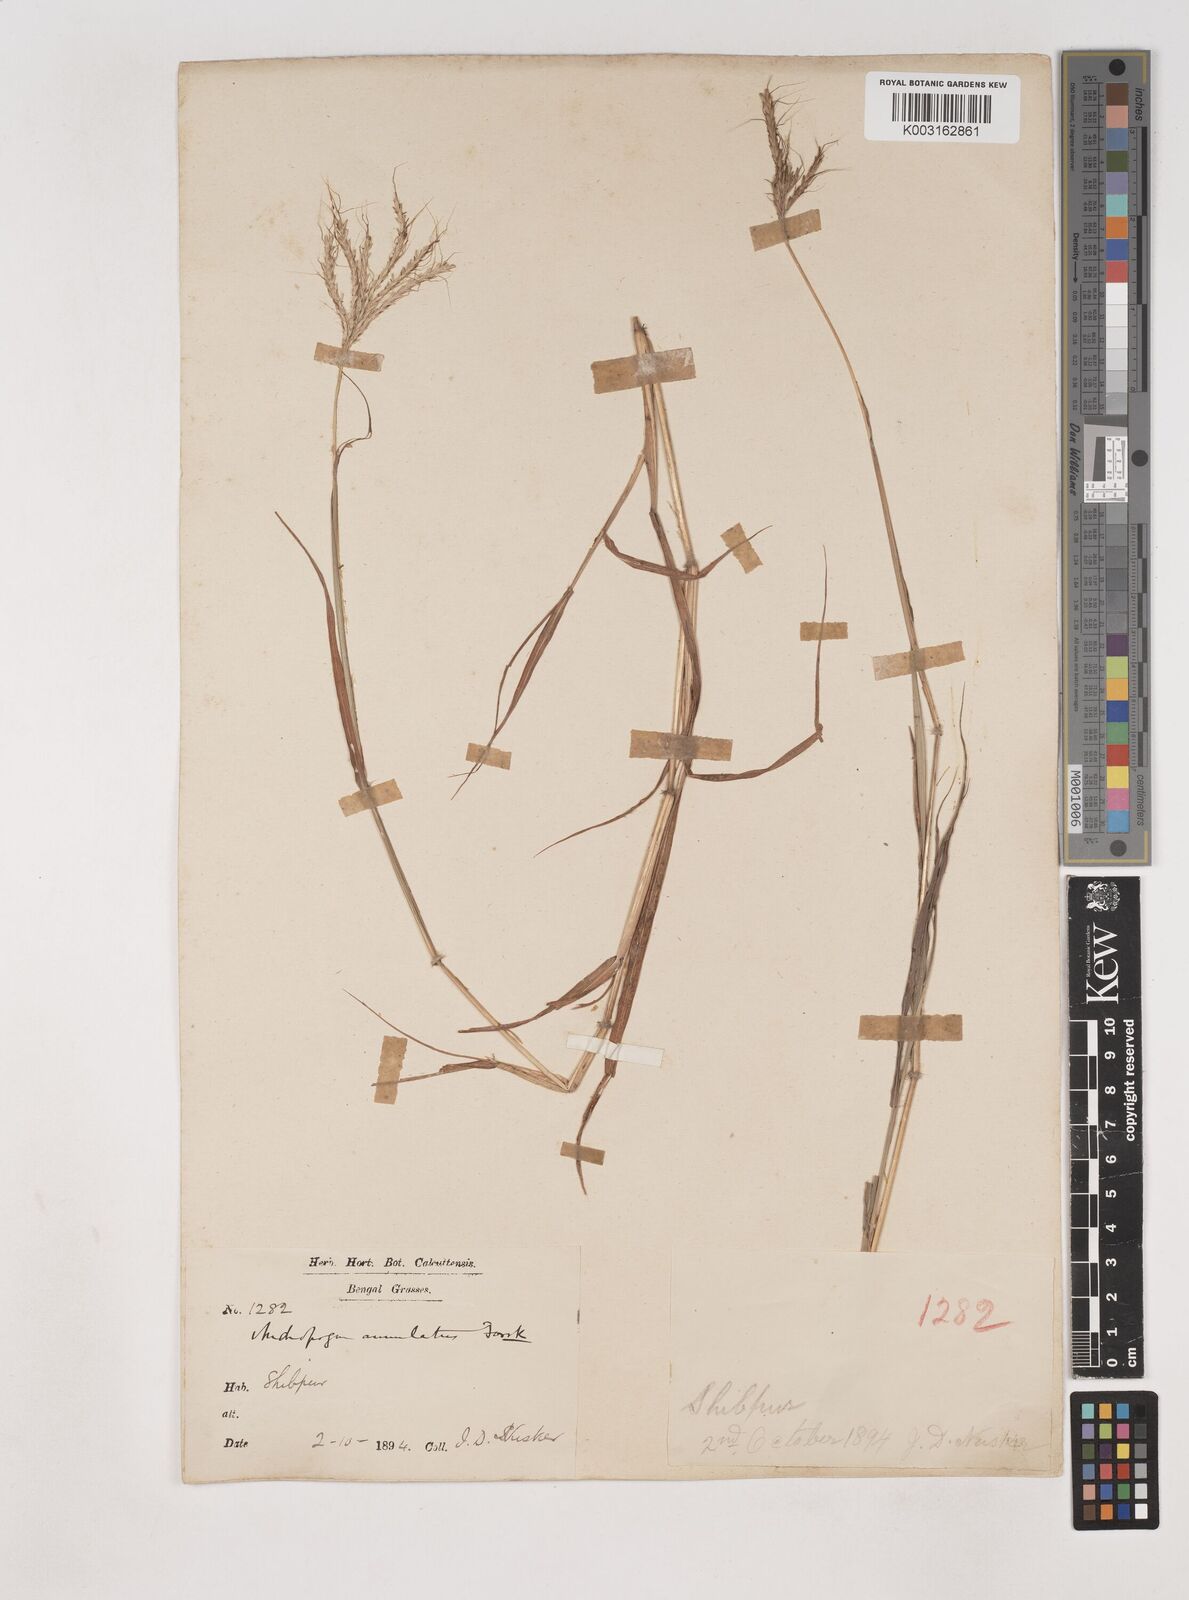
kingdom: Plantae
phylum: Tracheophyta
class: Liliopsida
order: Poales
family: Poaceae
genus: Dichanthium
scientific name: Dichanthium annulatum
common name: Kleberg's bluestem
